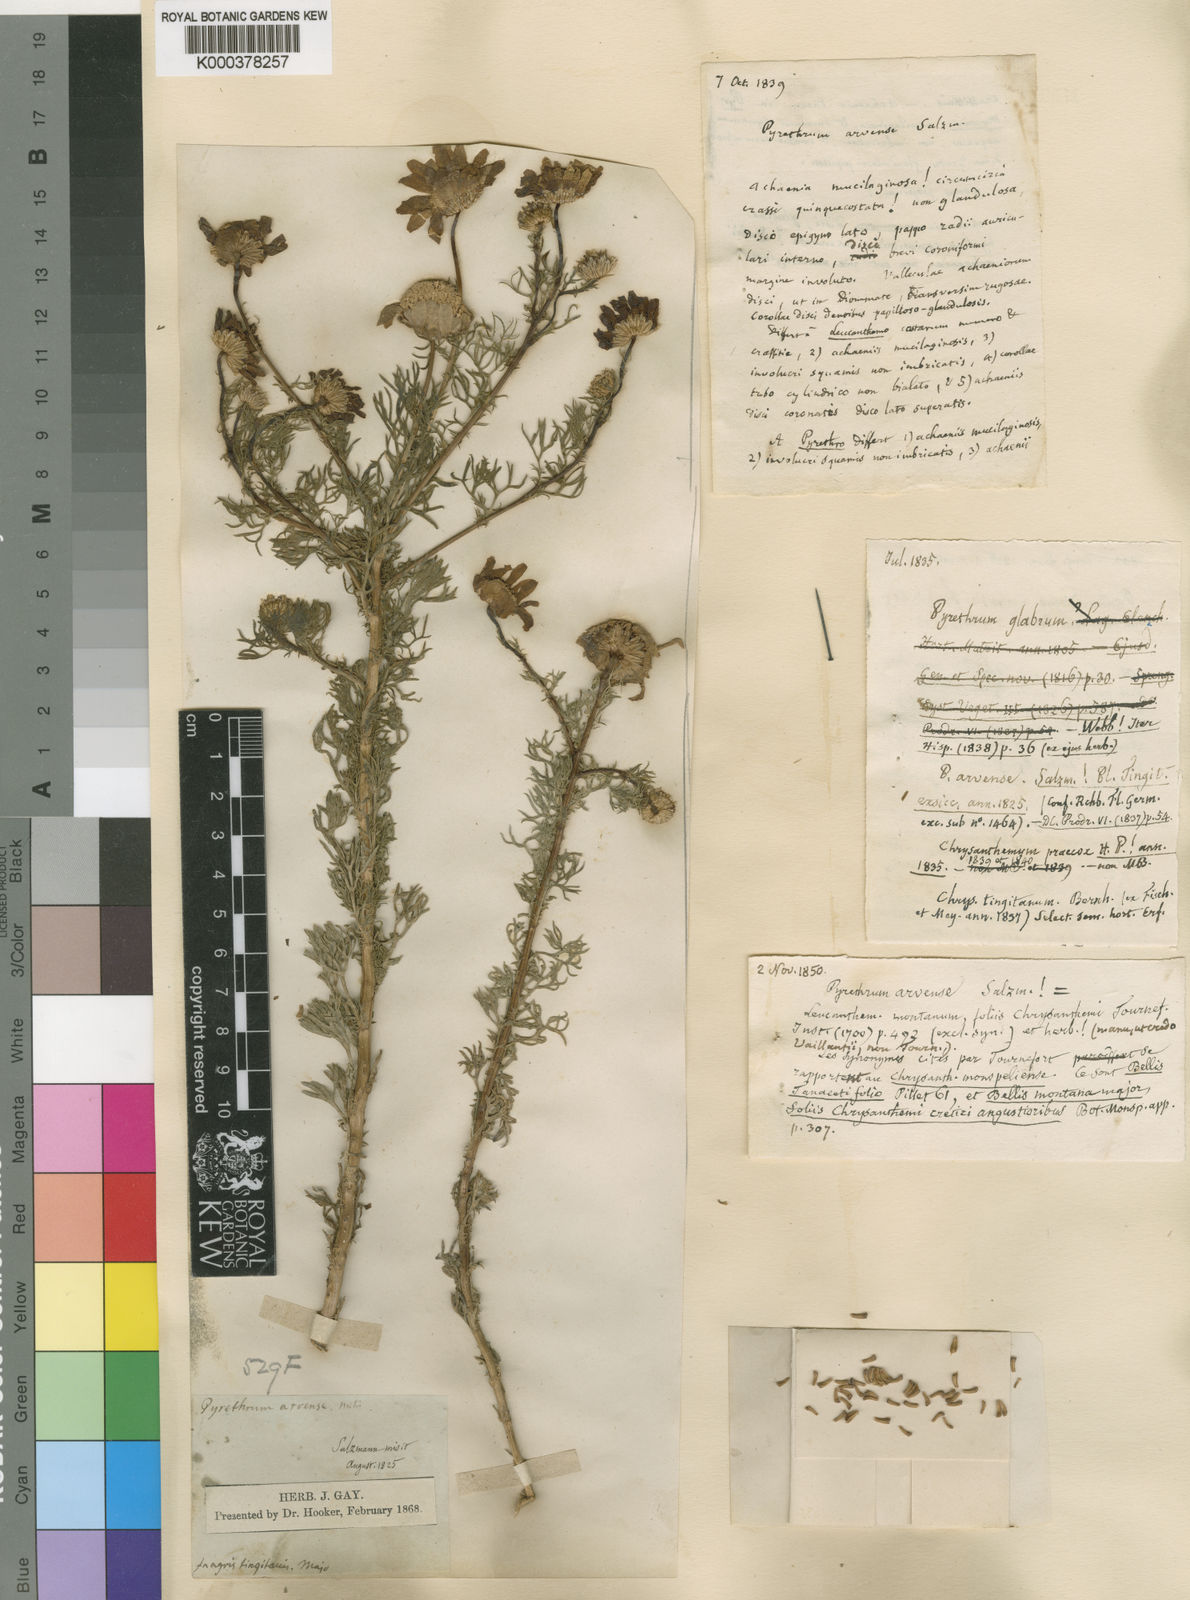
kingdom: Plantae
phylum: Tracheophyta
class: Magnoliopsida
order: Asterales
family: Asteraceae
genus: Gibbaria
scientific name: Gibbaria glabra
